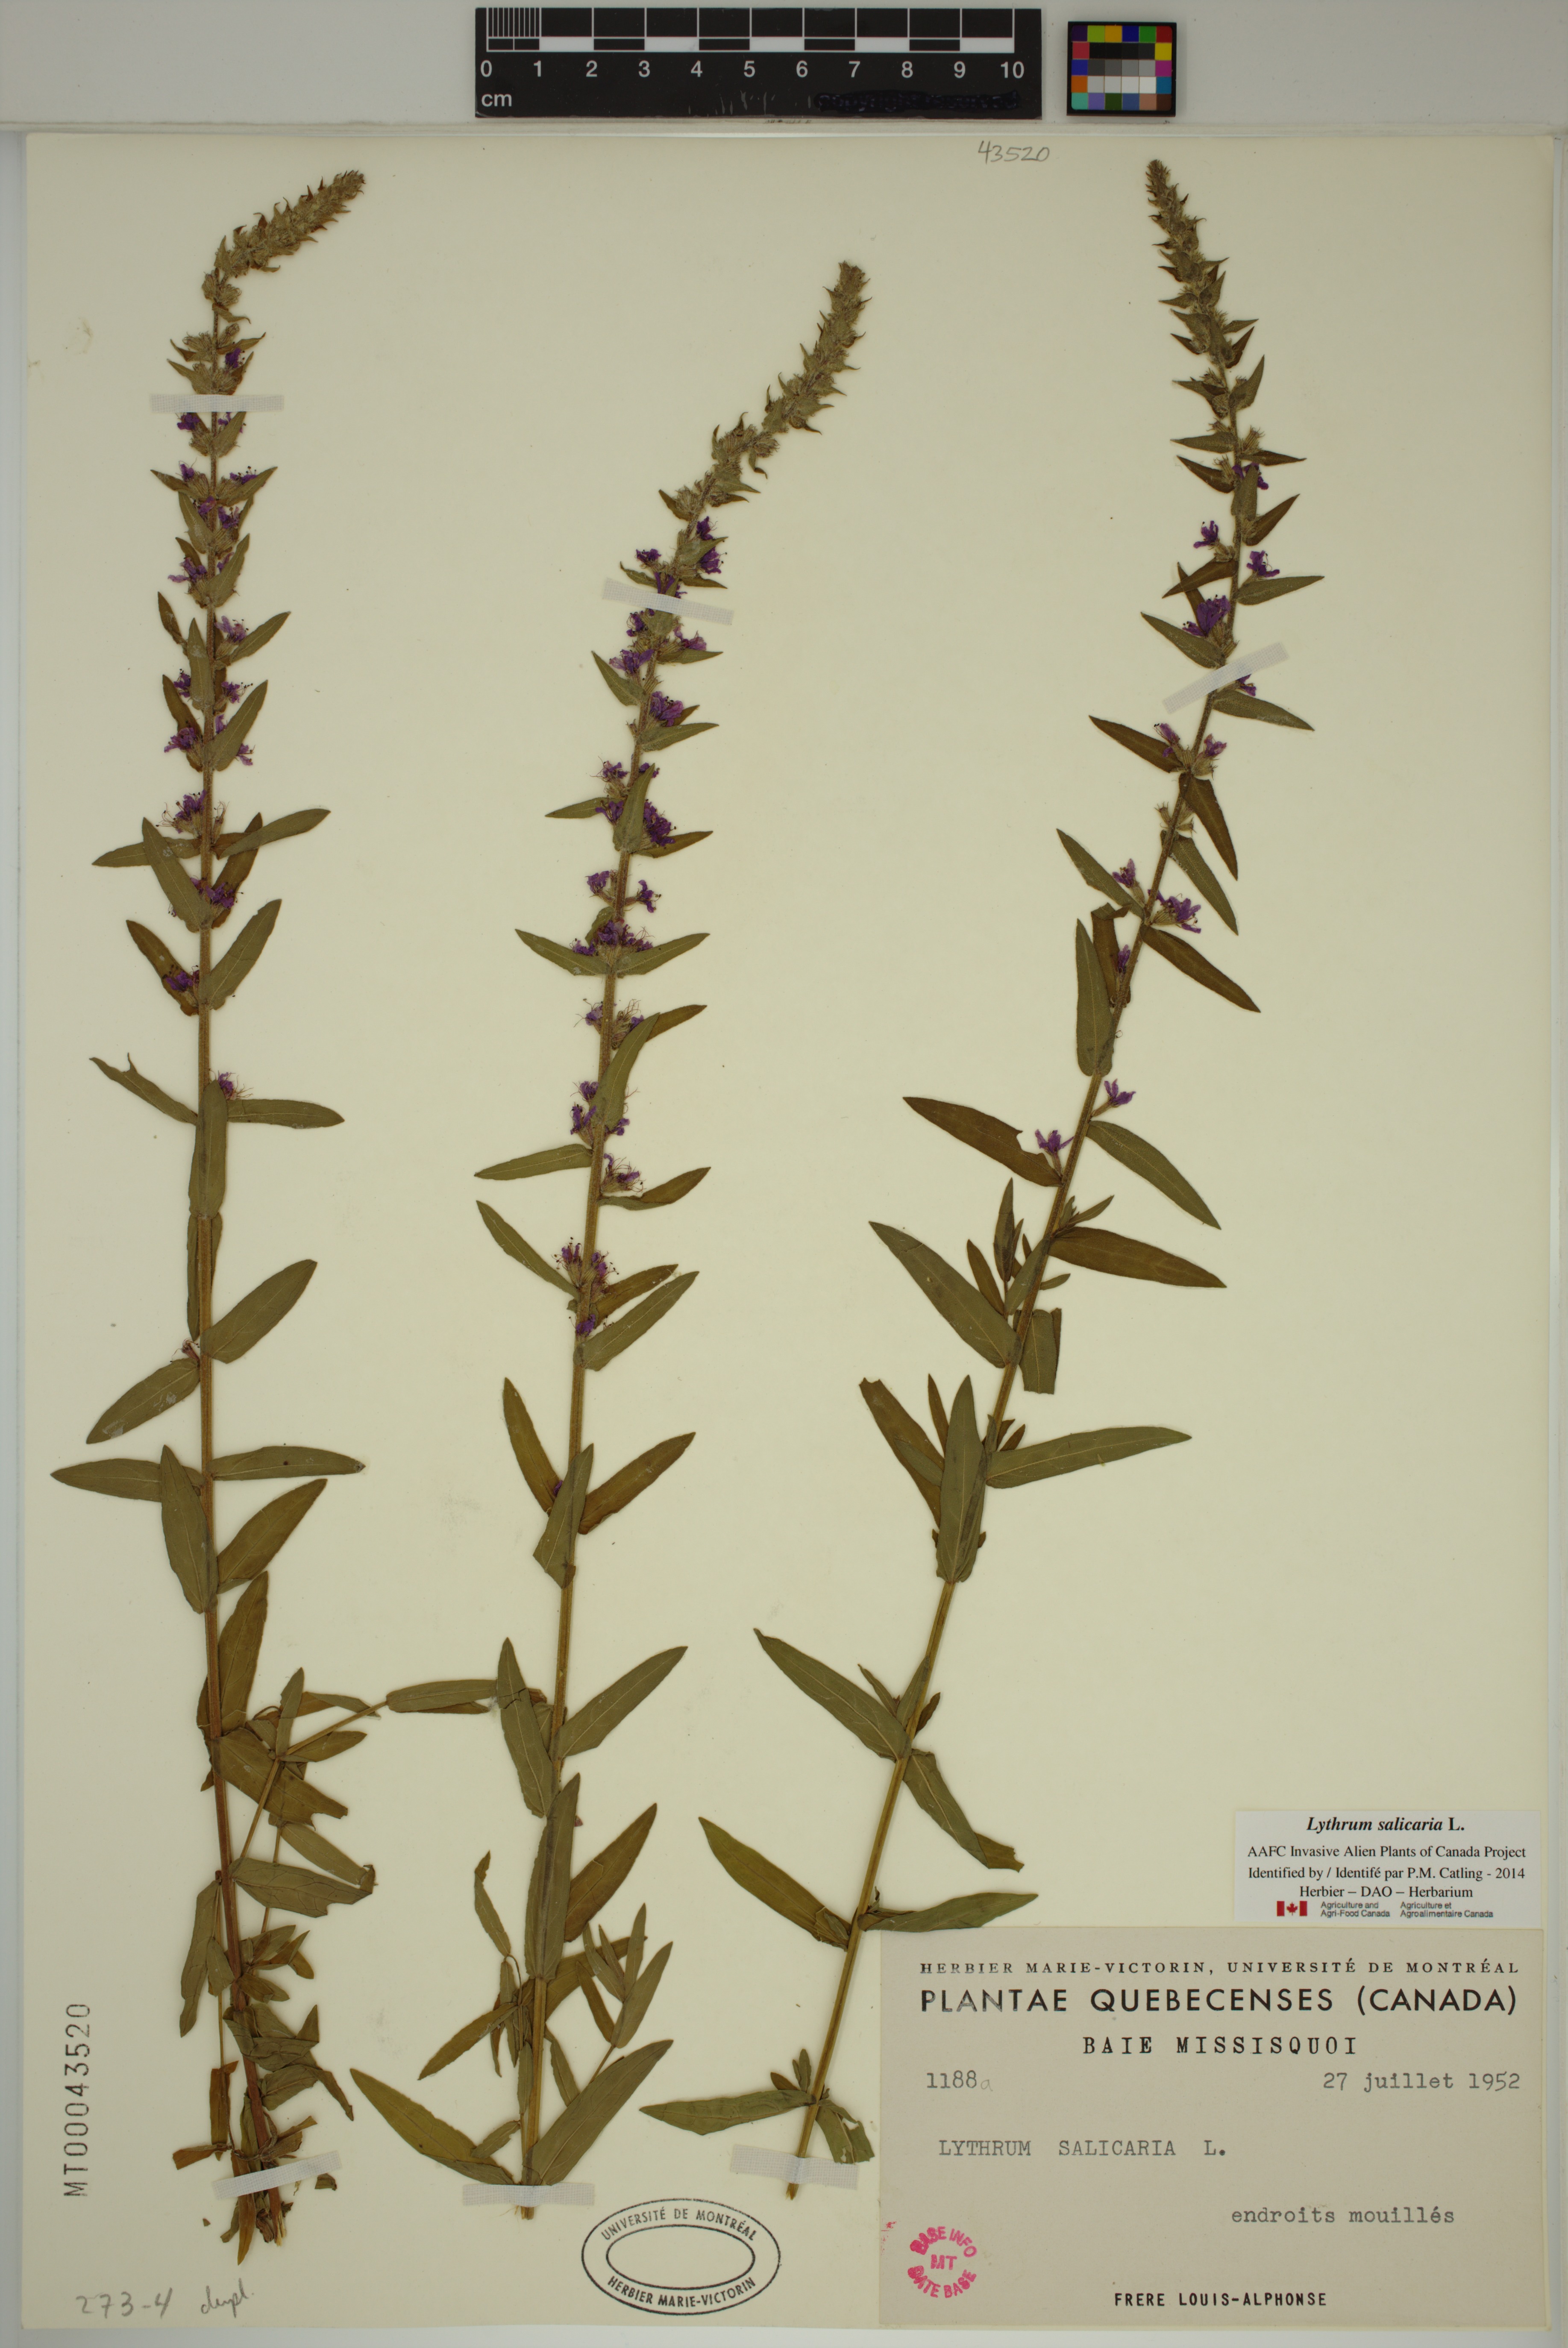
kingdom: Plantae
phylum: Tracheophyta
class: Magnoliopsida
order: Myrtales
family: Lythraceae
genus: Lythrum
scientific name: Lythrum salicaria
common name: Purple loosestrife
